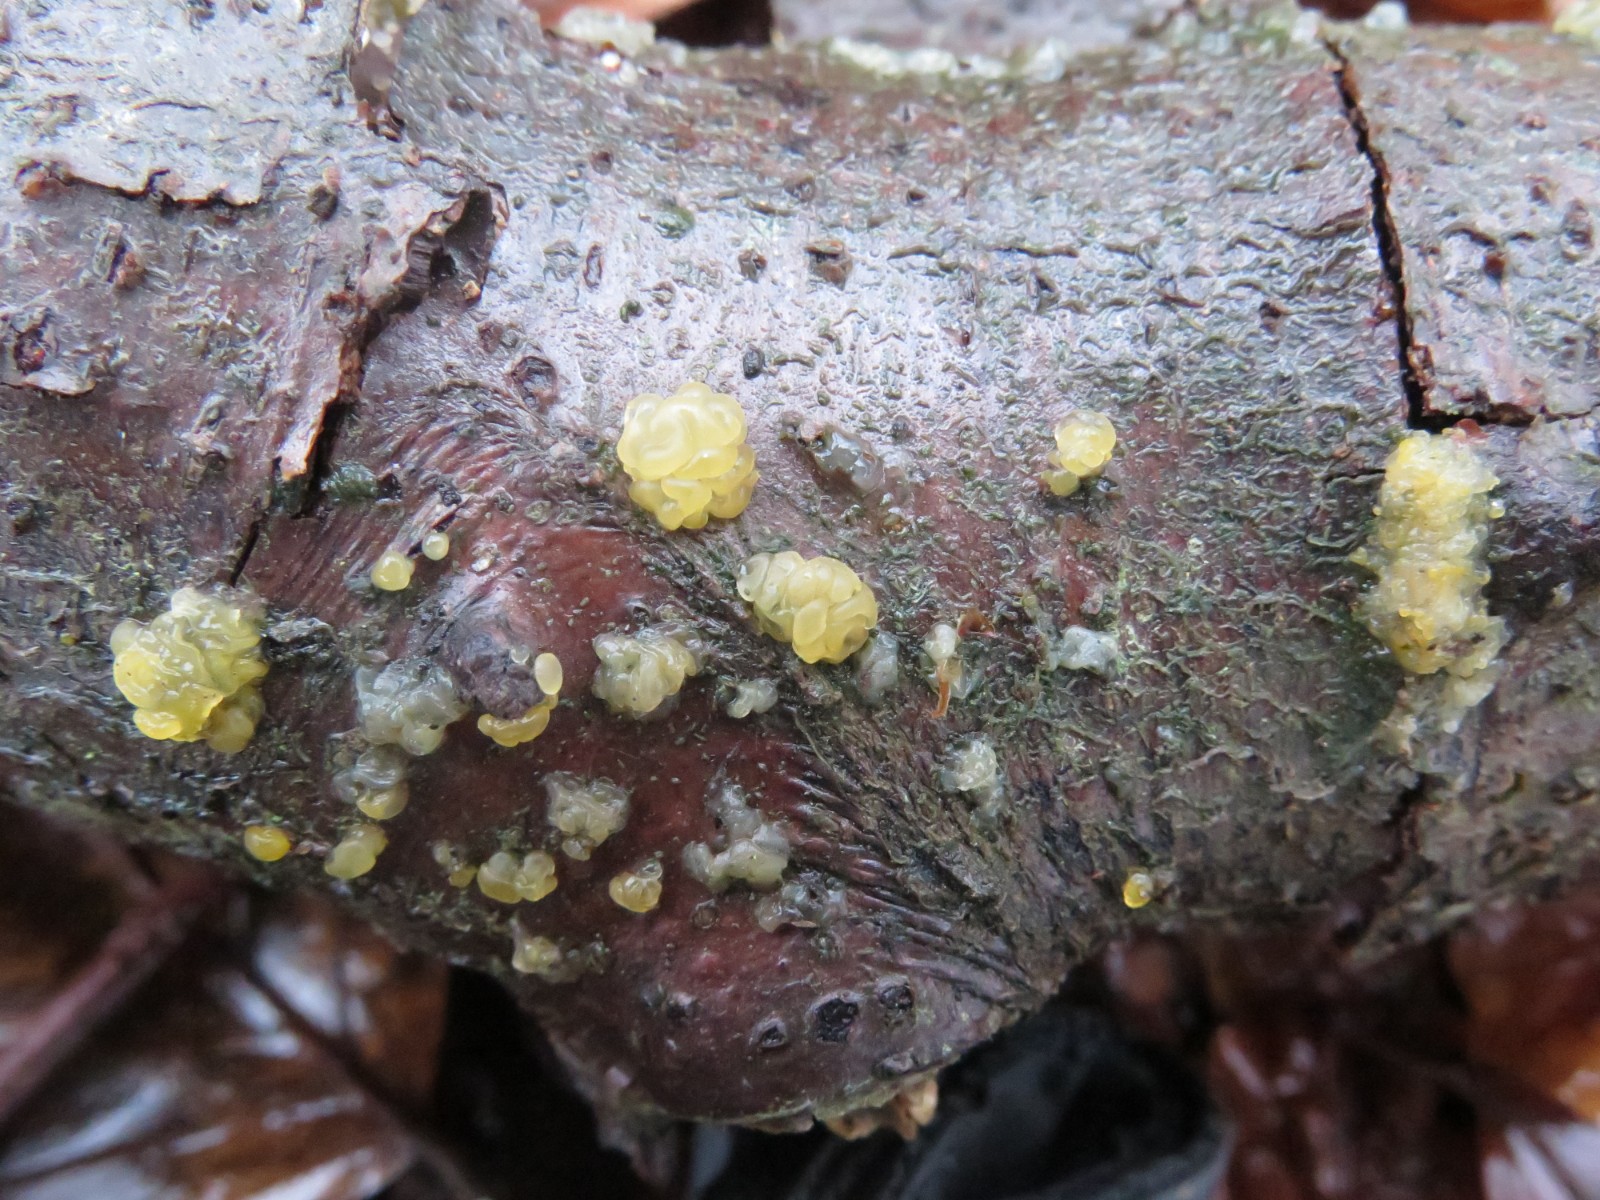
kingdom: Fungi
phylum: Basidiomycota
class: Tremellomycetes
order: Tremellales
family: Tremellaceae
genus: Tremella
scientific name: Tremella mesenterica
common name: gul bævresvamp
